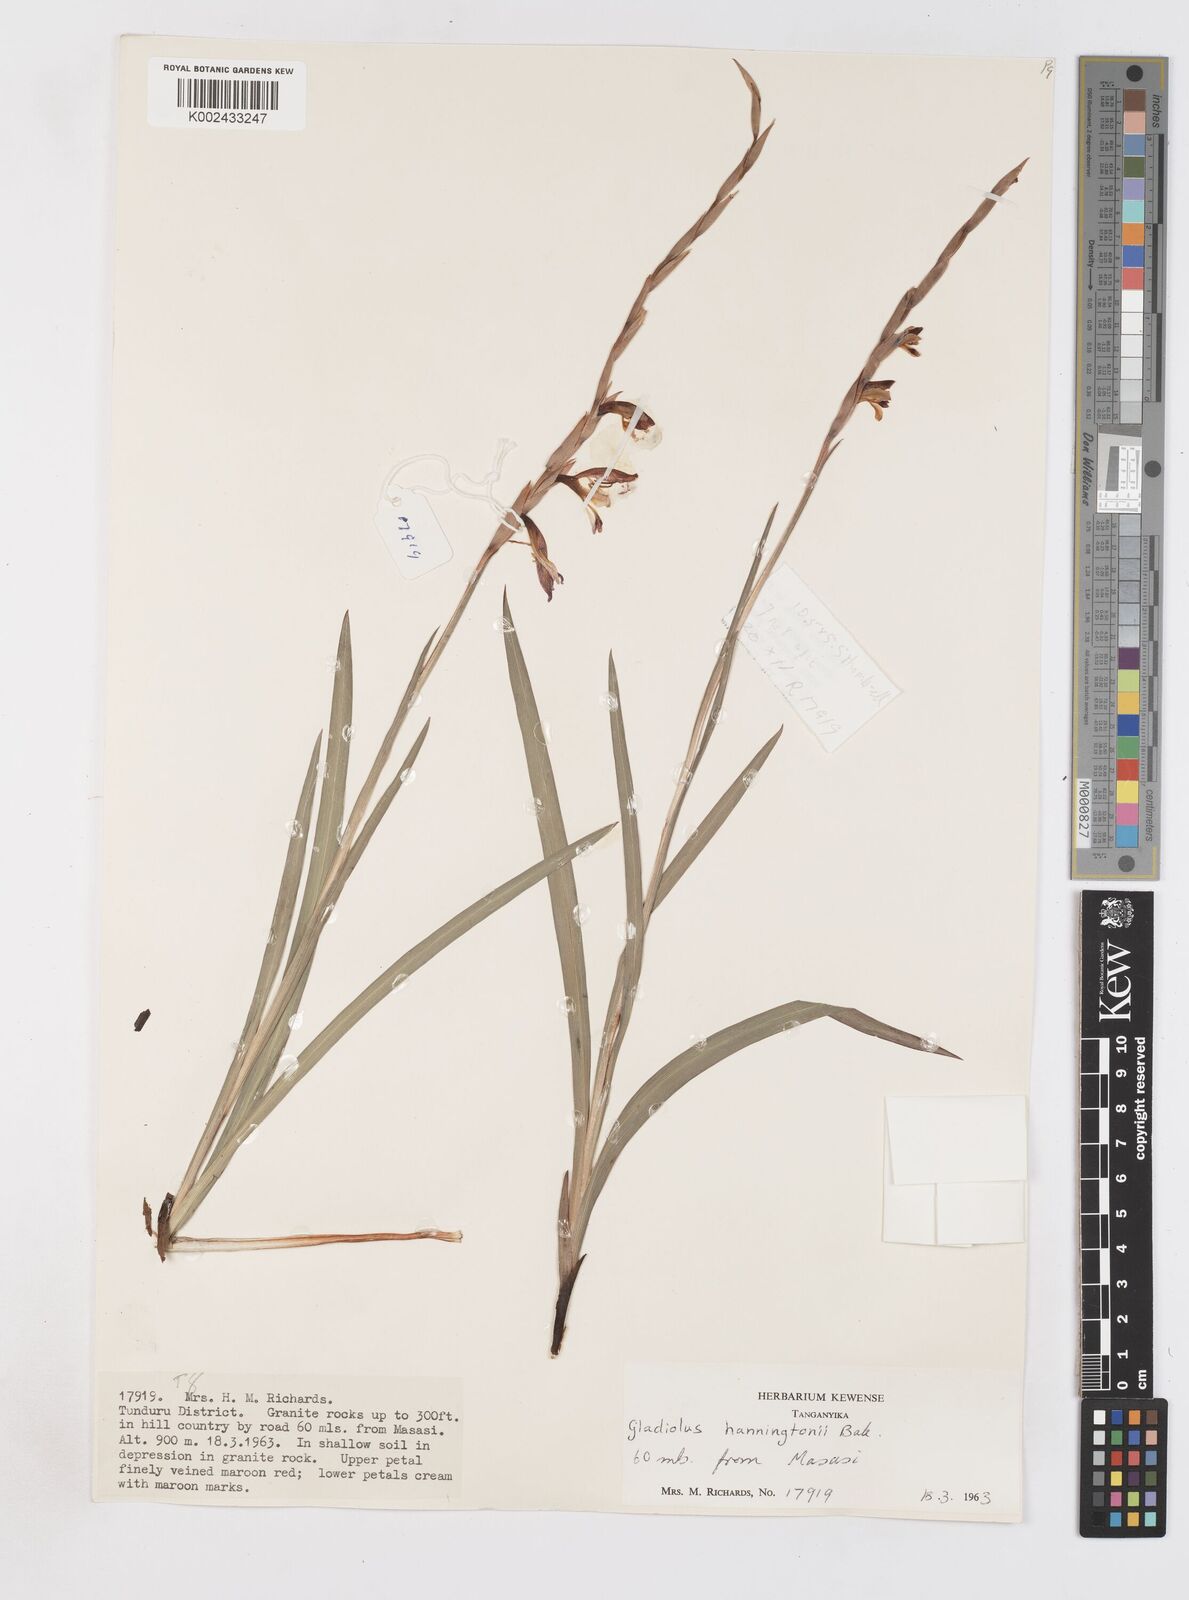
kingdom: Plantae
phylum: Tracheophyta
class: Liliopsida
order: Asparagales
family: Iridaceae
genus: Gladiolus
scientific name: Gladiolus gregarius
